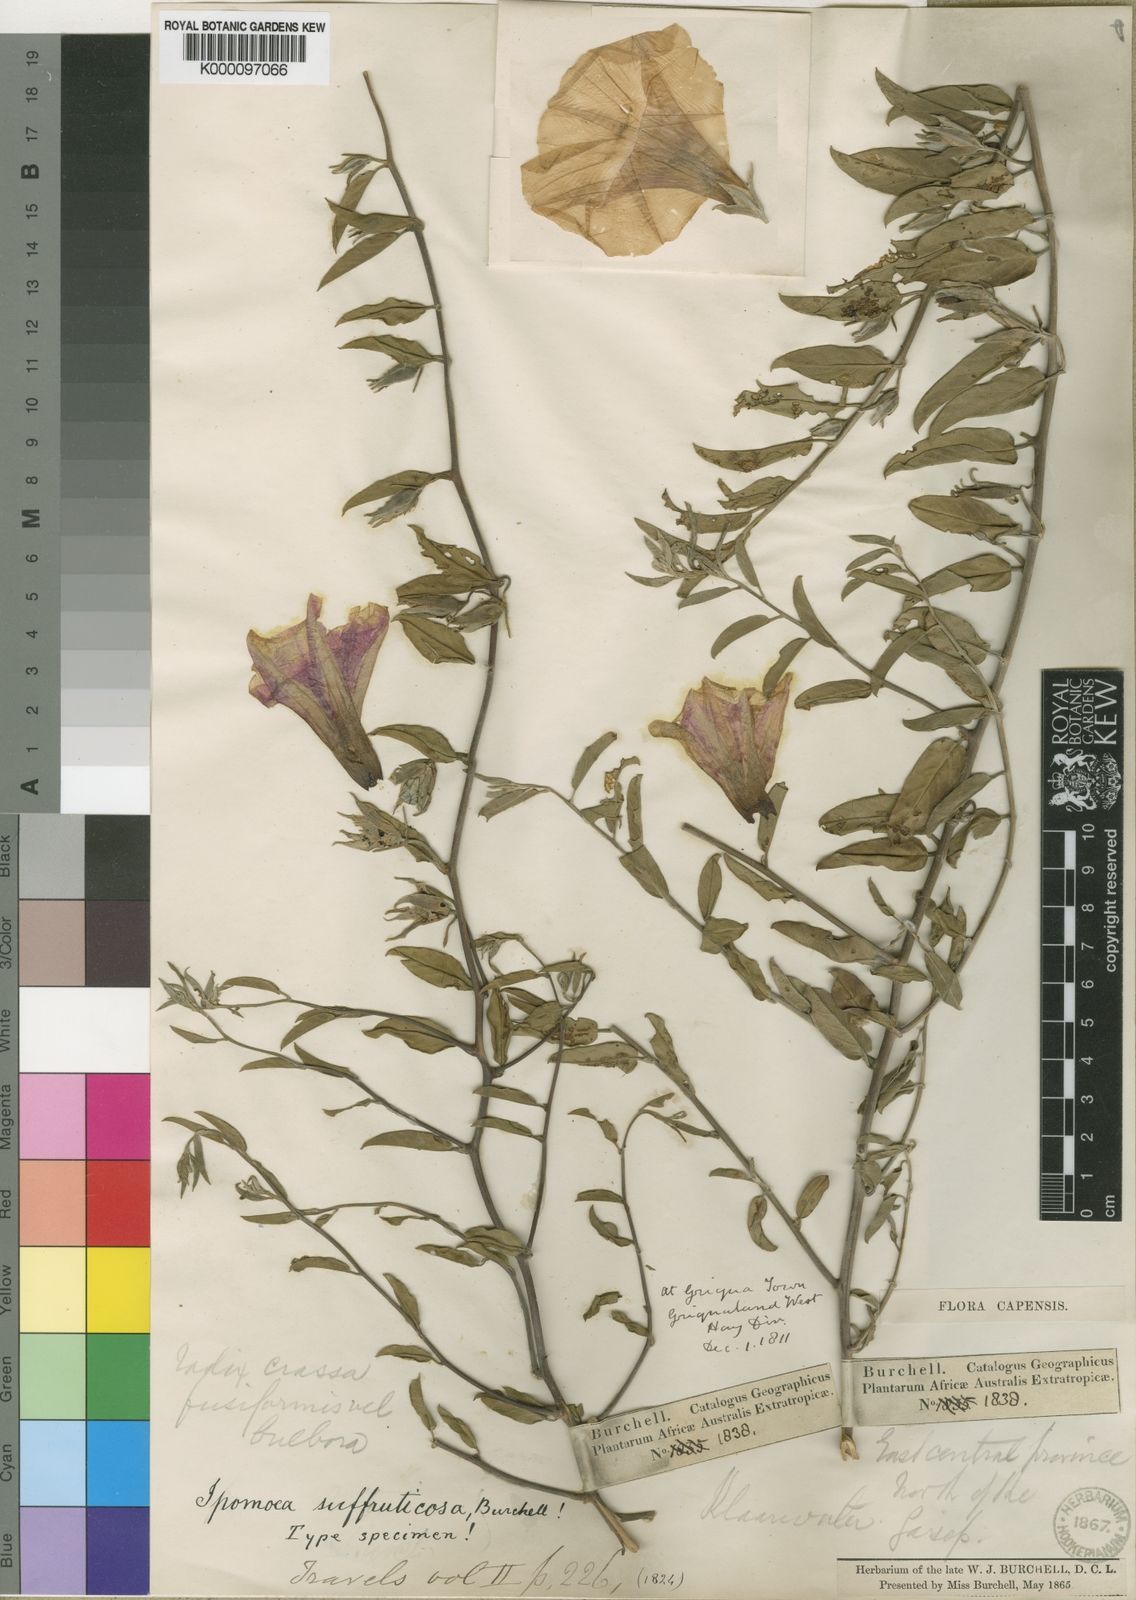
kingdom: Plantae
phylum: Tracheophyta
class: Magnoliopsida
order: Solanales
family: Convolvulaceae
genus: Ipomoea
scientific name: Ipomoea suffruticosa
